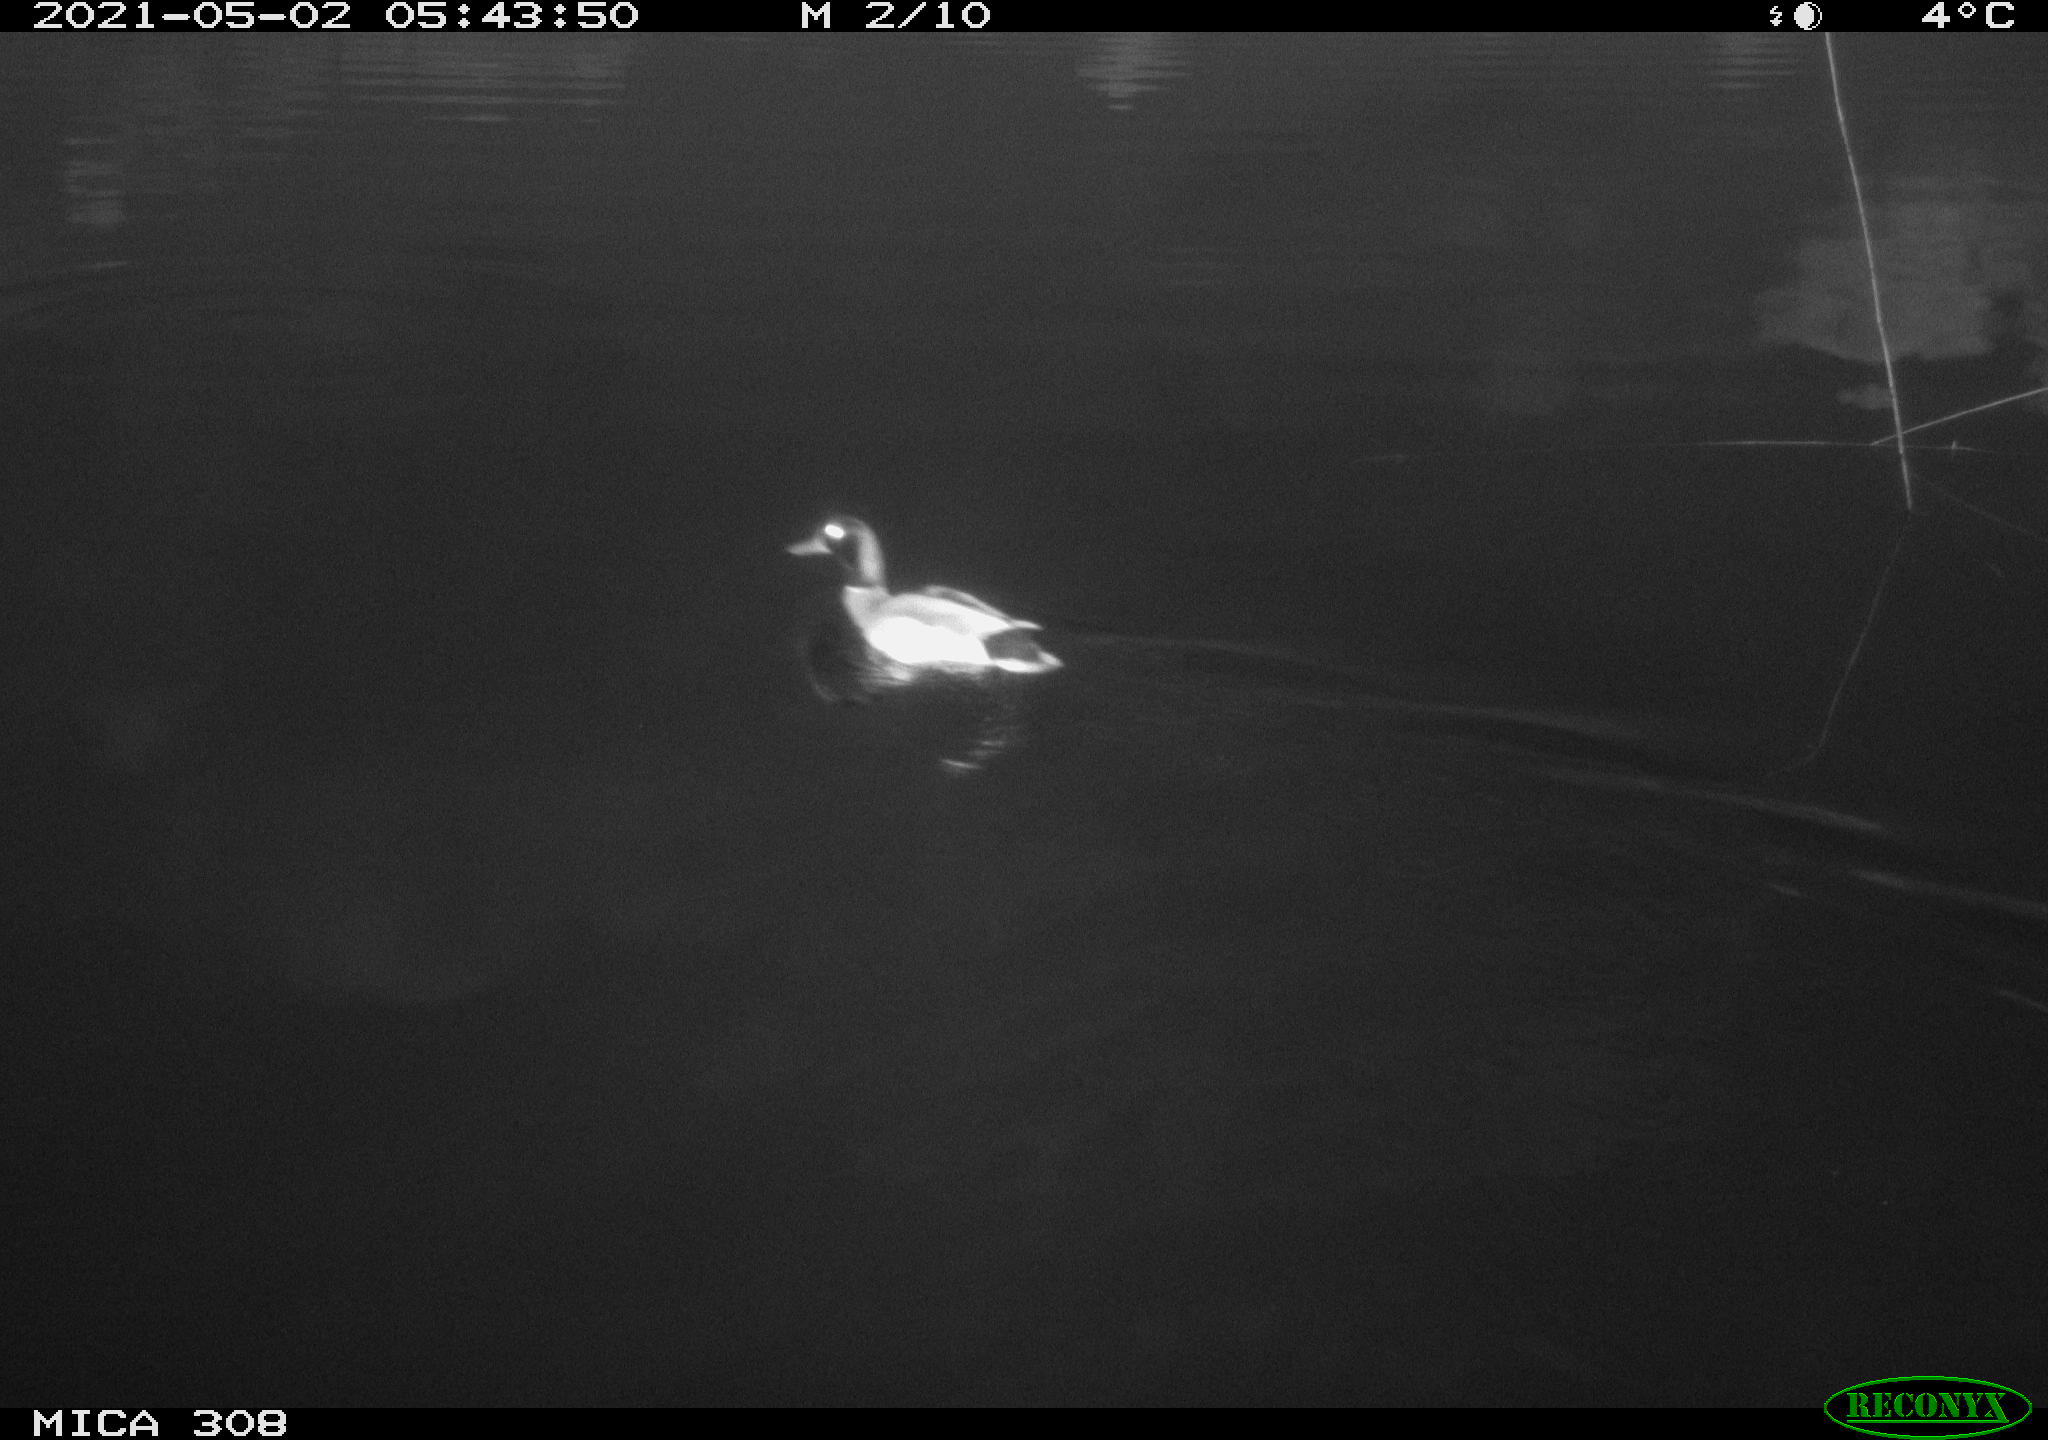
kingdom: Animalia
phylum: Chordata
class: Aves
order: Anseriformes
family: Anatidae
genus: Anas
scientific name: Anas platyrhynchos
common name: Mallard
